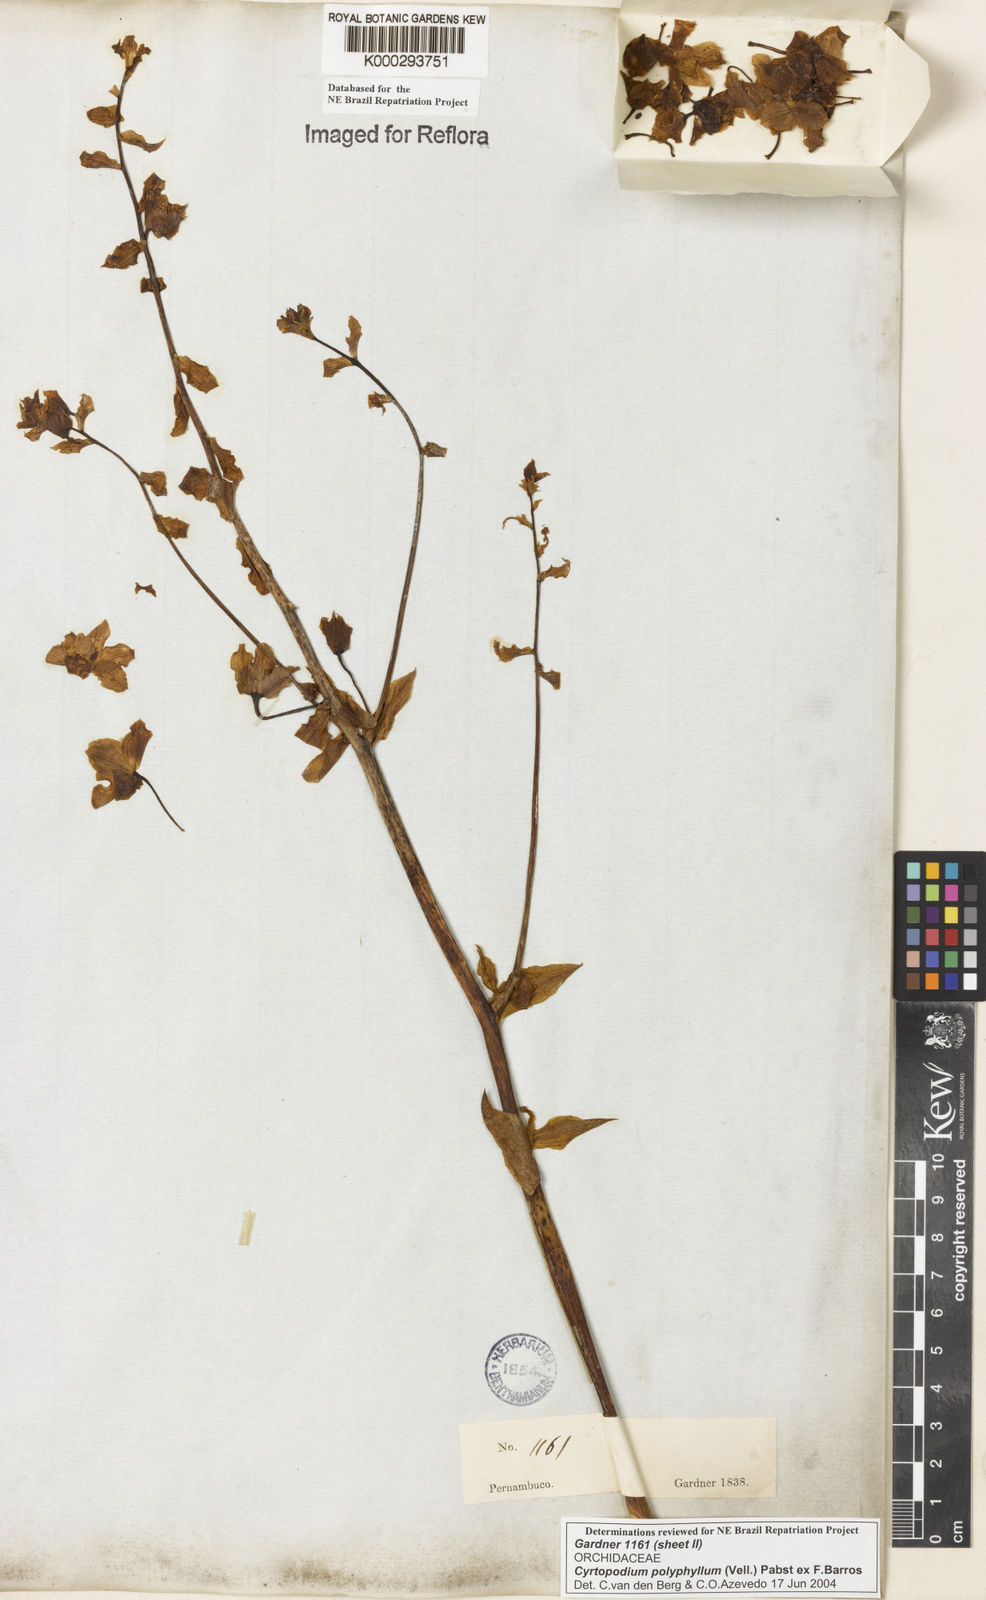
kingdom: Plantae
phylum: Tracheophyta
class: Liliopsida
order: Asparagales
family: Orchidaceae
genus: Cyrtopodium
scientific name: Cyrtopodium flavum
